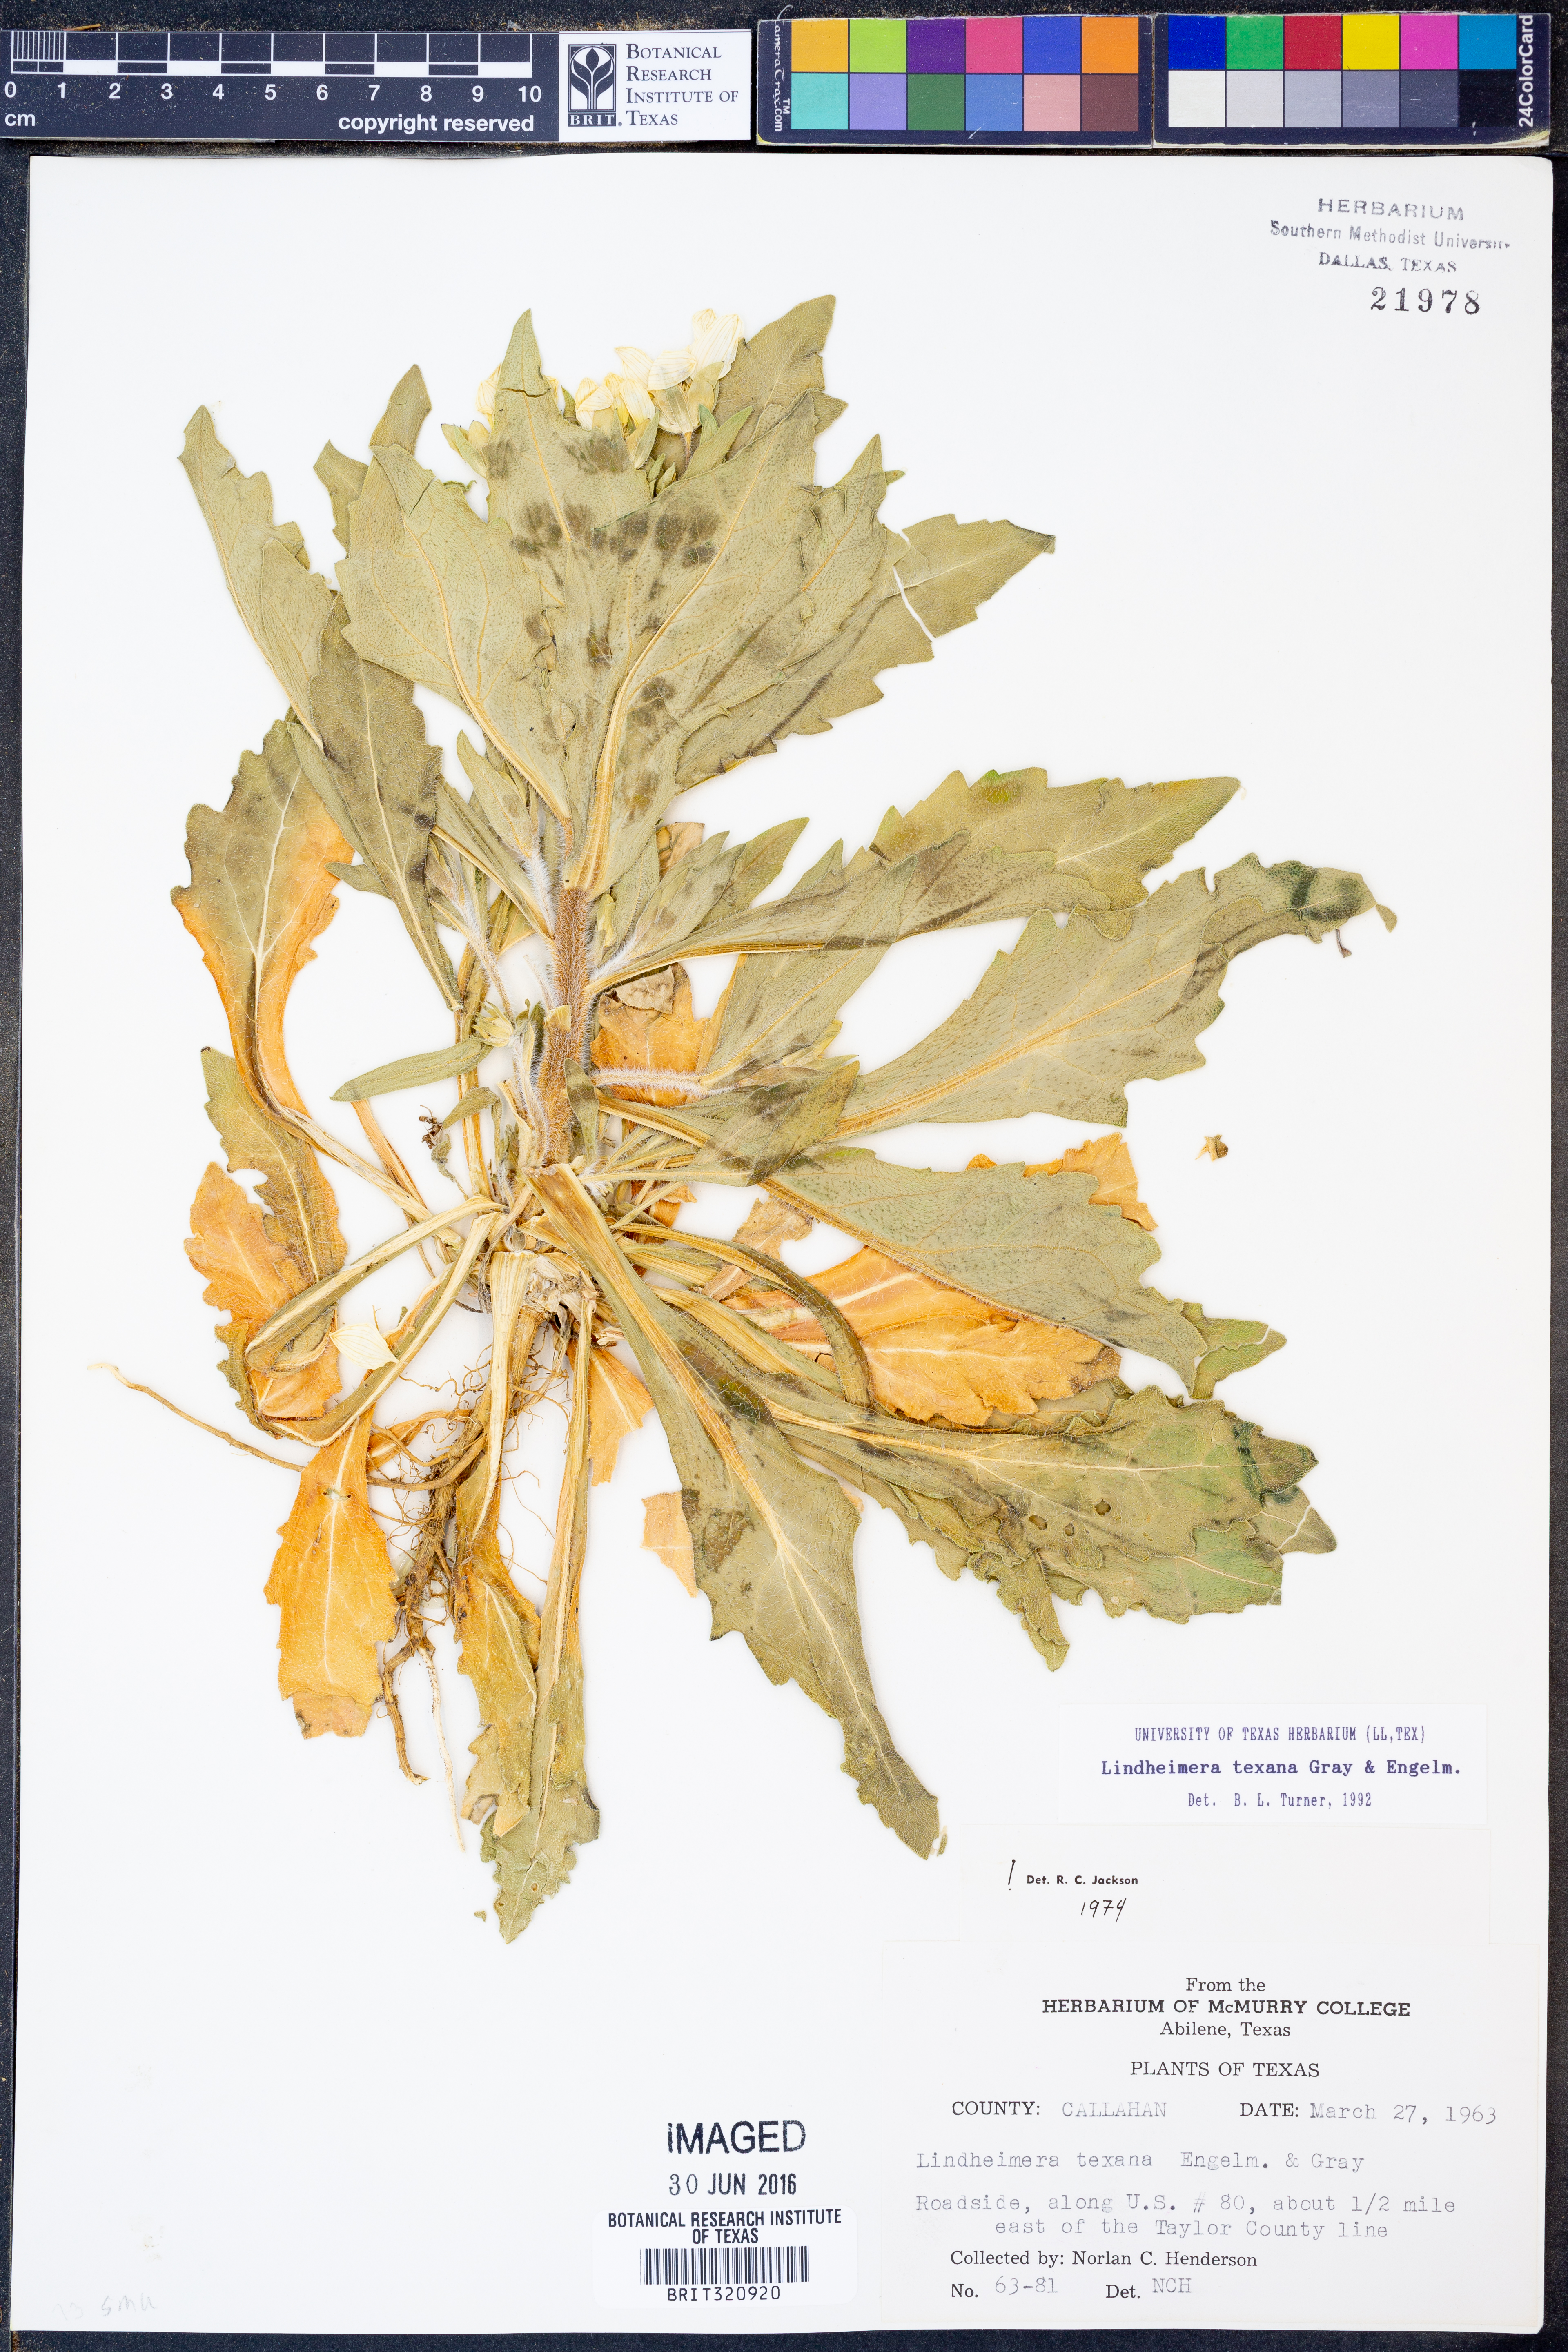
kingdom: Plantae
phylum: Tracheophyta
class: Magnoliopsida
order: Asterales
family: Asteraceae
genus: Lindheimera
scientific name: Lindheimera texana
